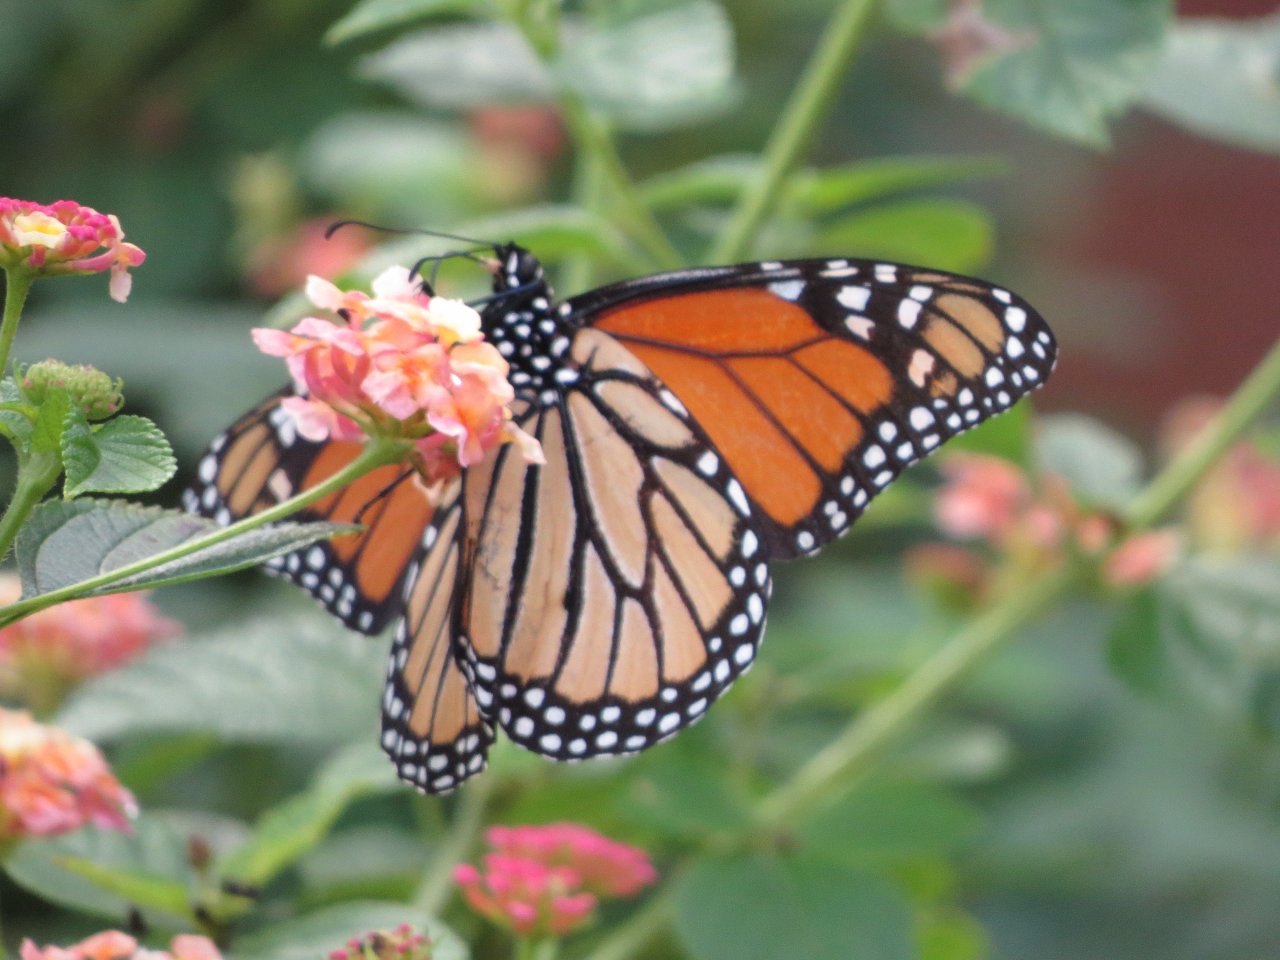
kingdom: Animalia
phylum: Arthropoda
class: Insecta
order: Lepidoptera
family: Nymphalidae
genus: Danaus
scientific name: Danaus plexippus
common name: Monarch
